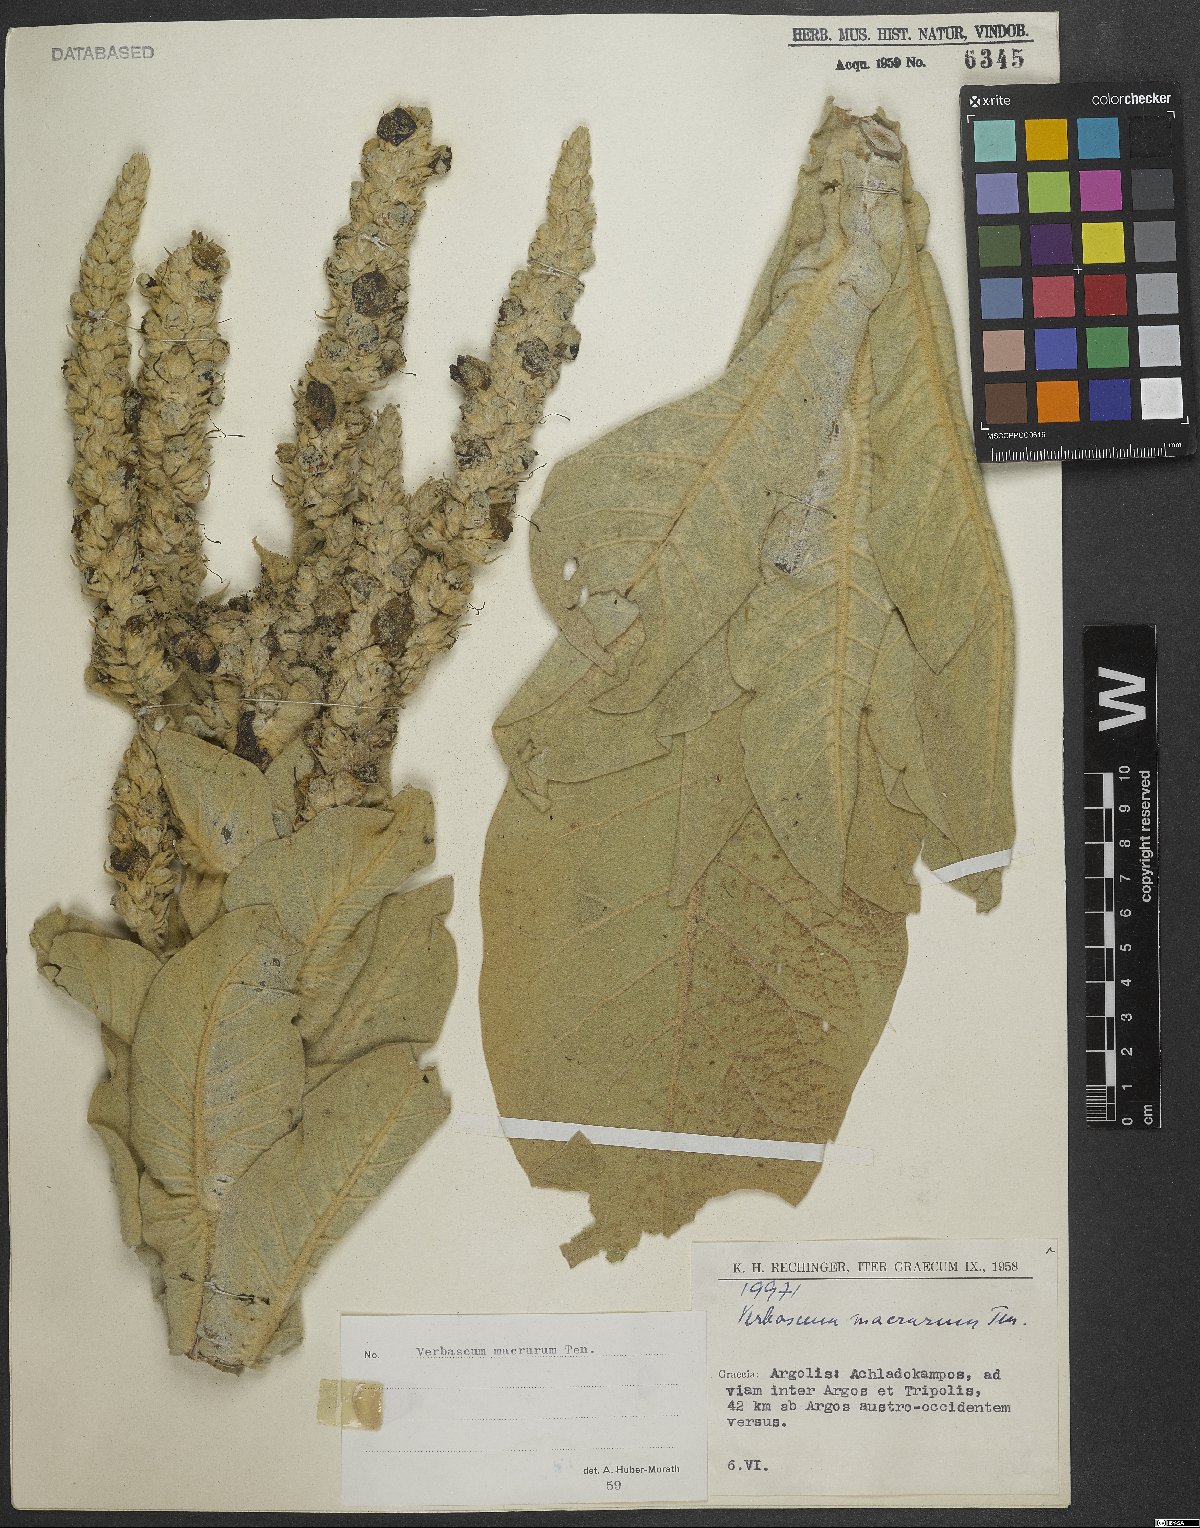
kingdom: Plantae
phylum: Tracheophyta
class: Magnoliopsida
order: Lamiales
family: Scrophulariaceae
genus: Verbascum
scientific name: Verbascum macrurum
